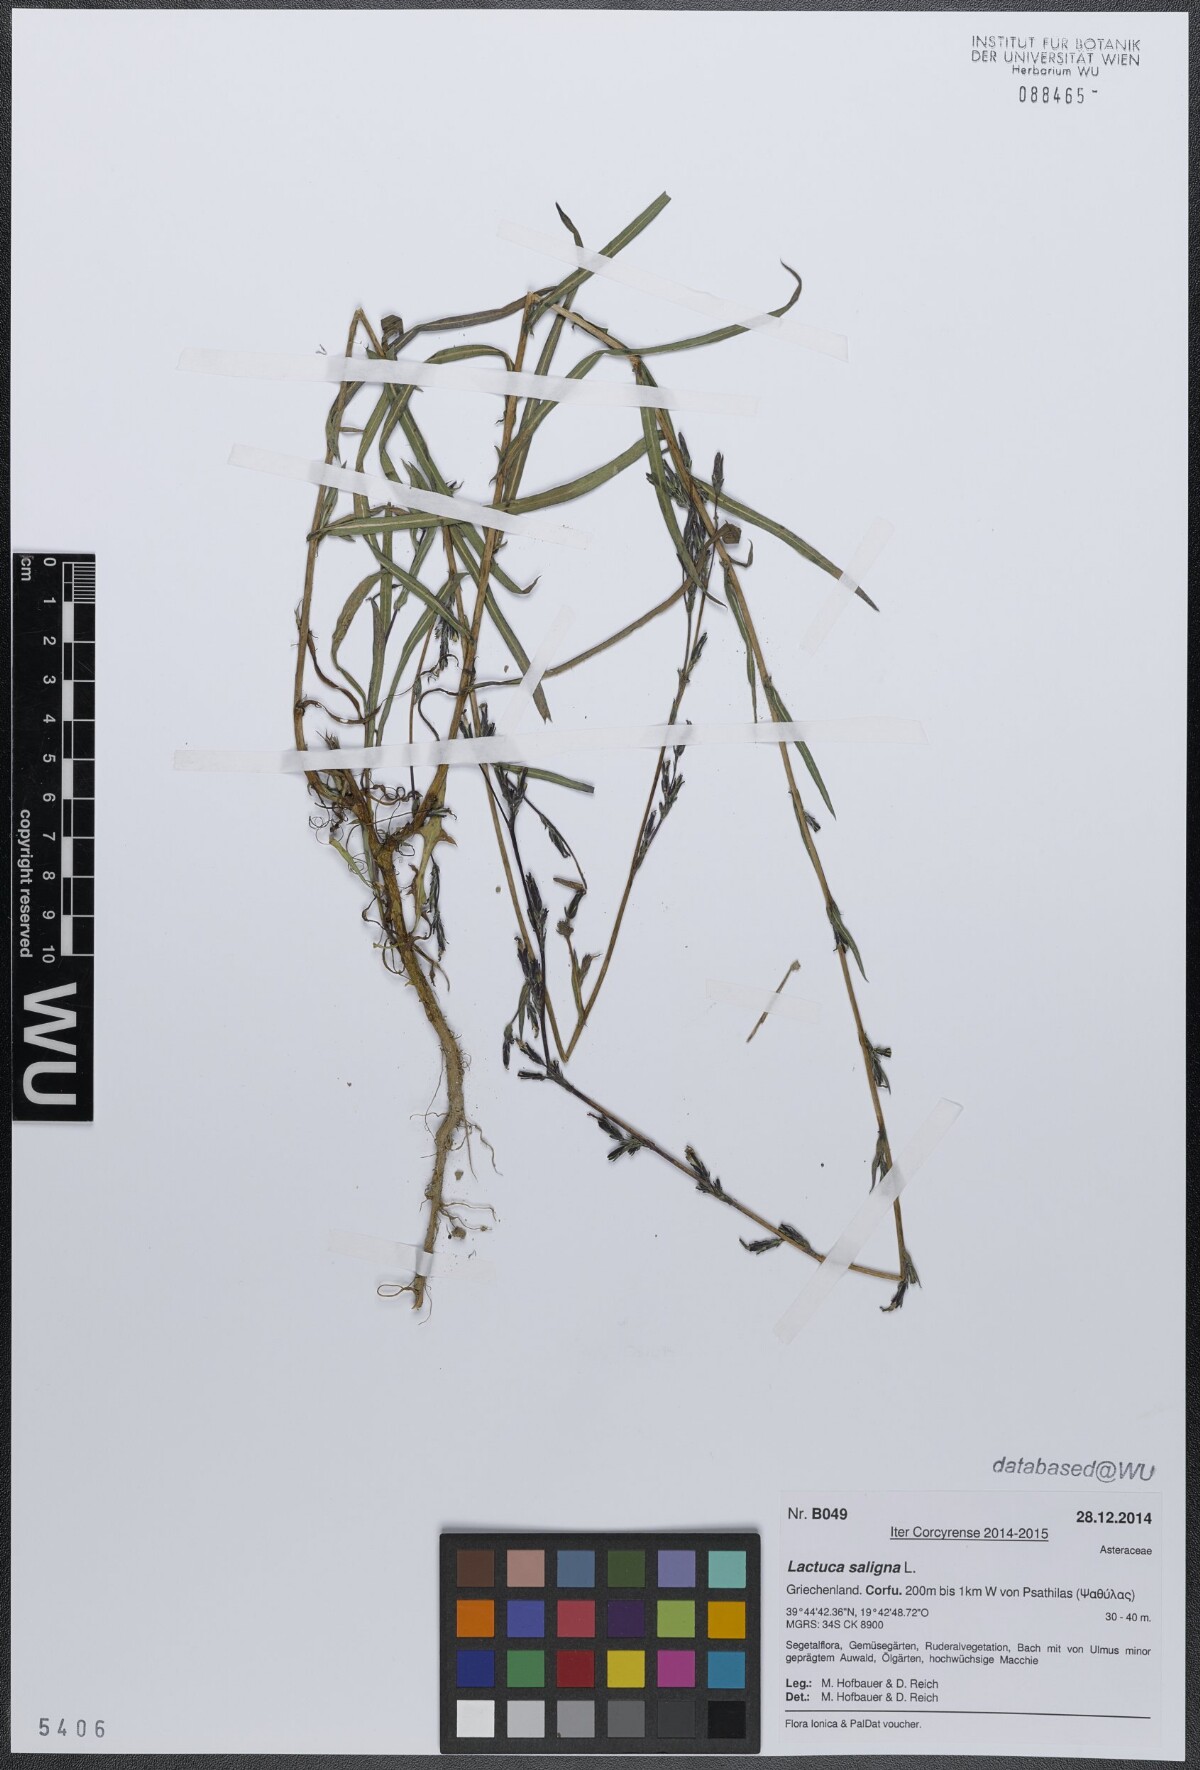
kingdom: Plantae
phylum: Tracheophyta
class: Magnoliopsida
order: Asterales
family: Asteraceae
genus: Lactuca
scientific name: Lactuca saligna
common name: Wild lettuce
